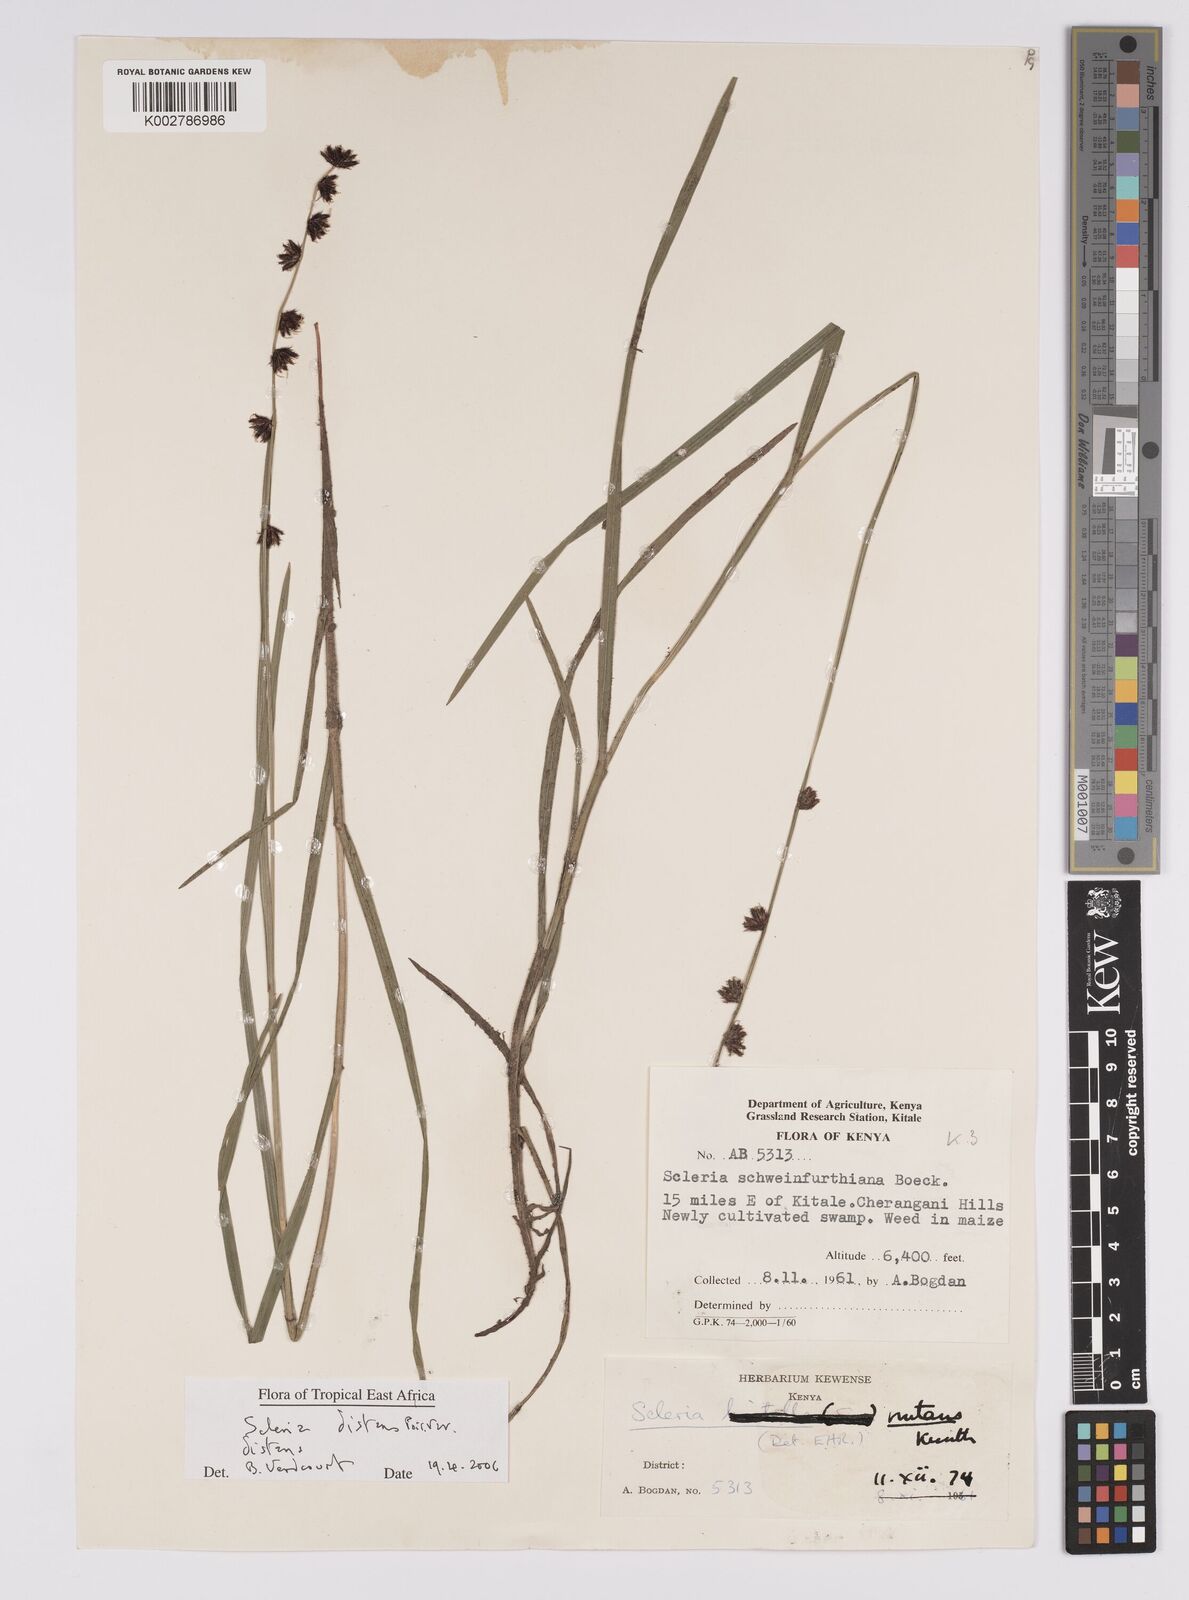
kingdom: Plantae
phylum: Tracheophyta
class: Liliopsida
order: Poales
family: Cyperaceae
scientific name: Cyperaceae
